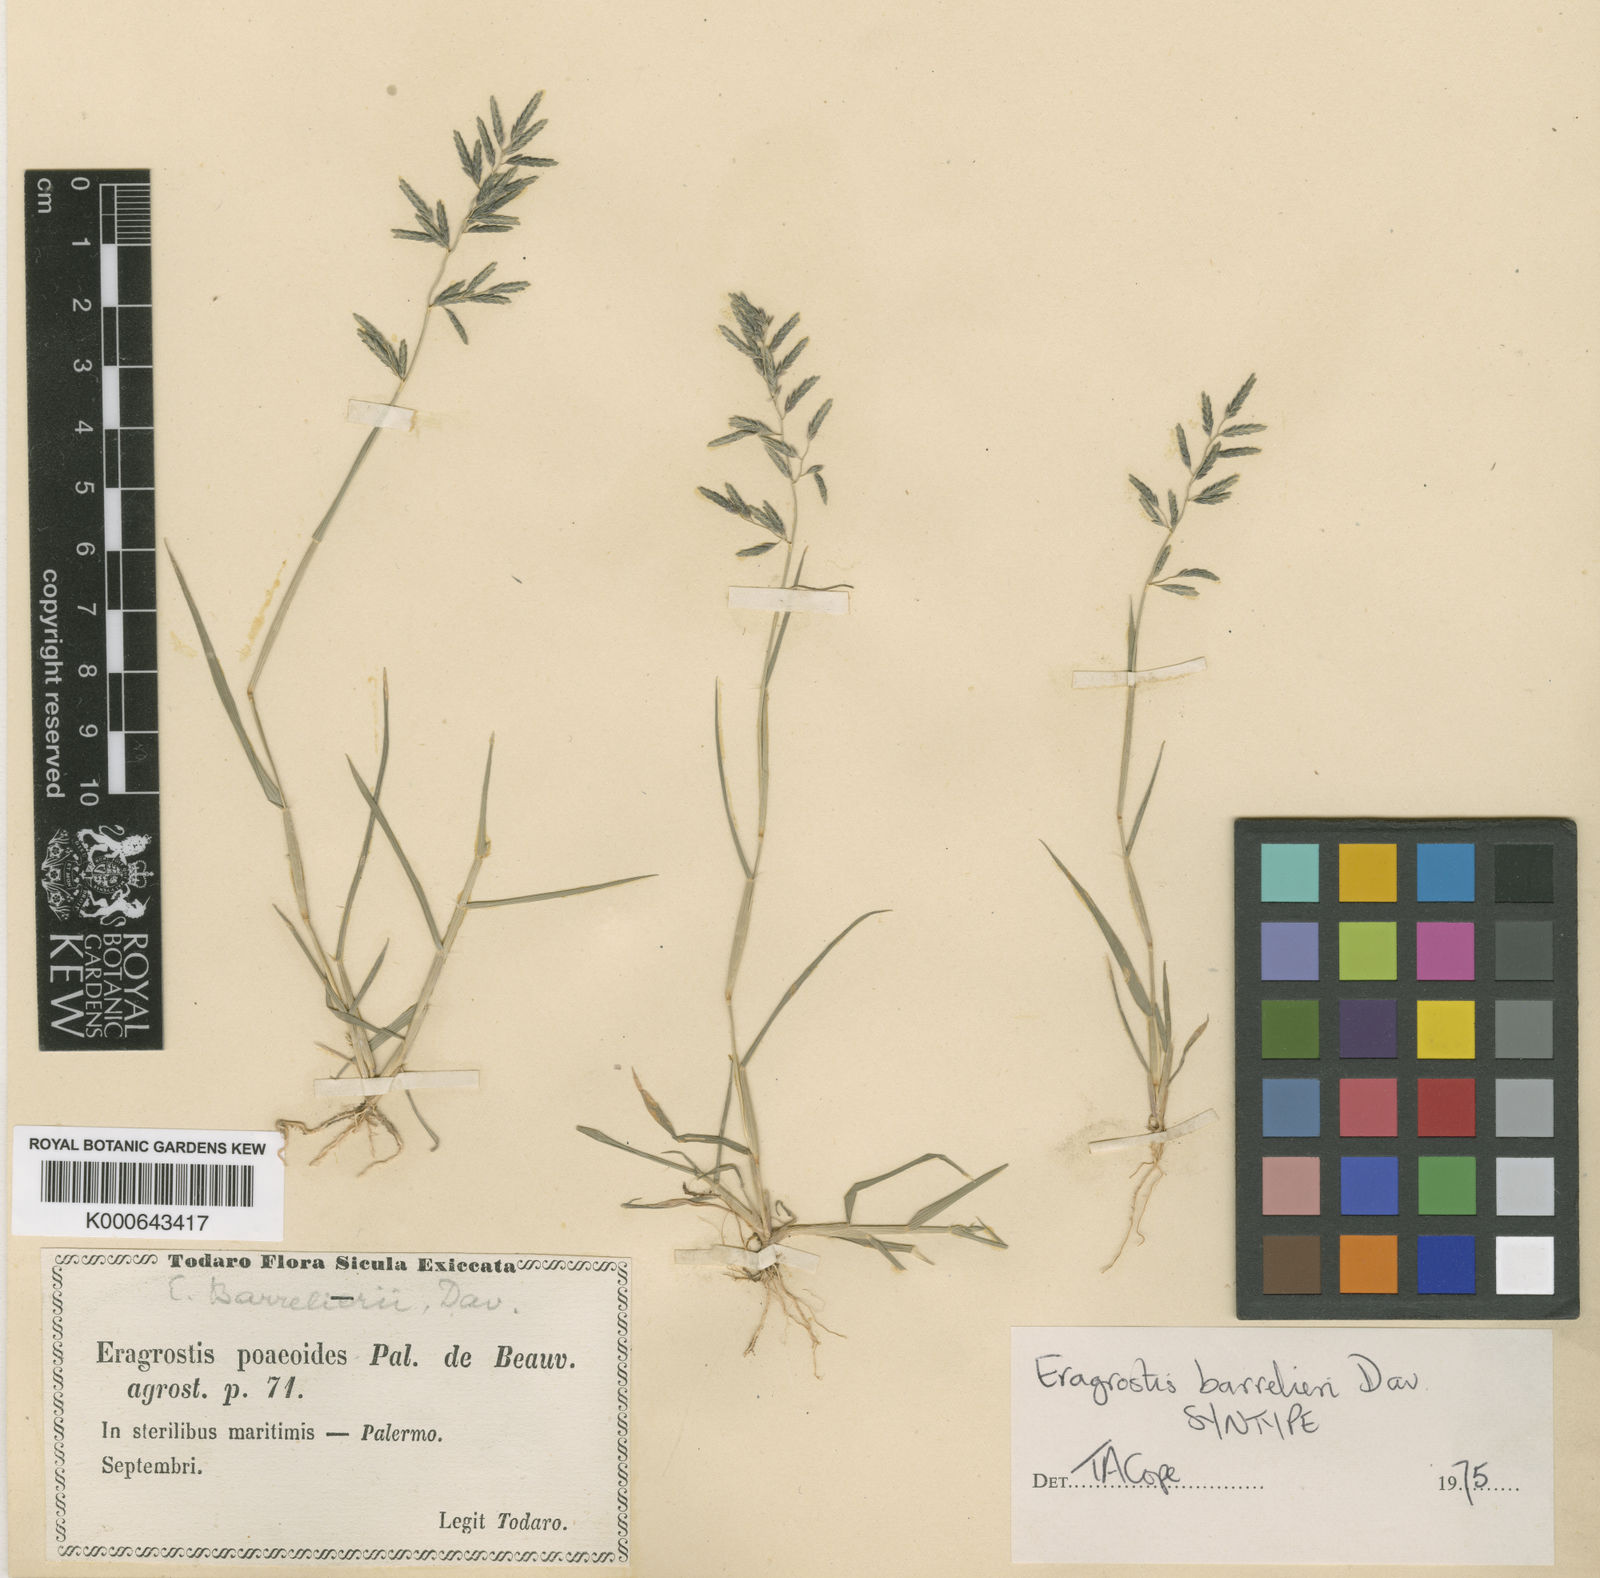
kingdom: Plantae
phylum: Tracheophyta
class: Liliopsida
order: Poales
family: Poaceae
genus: Eragrostis
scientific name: Eragrostis barrelieri
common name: Mediterranean lovegrass
